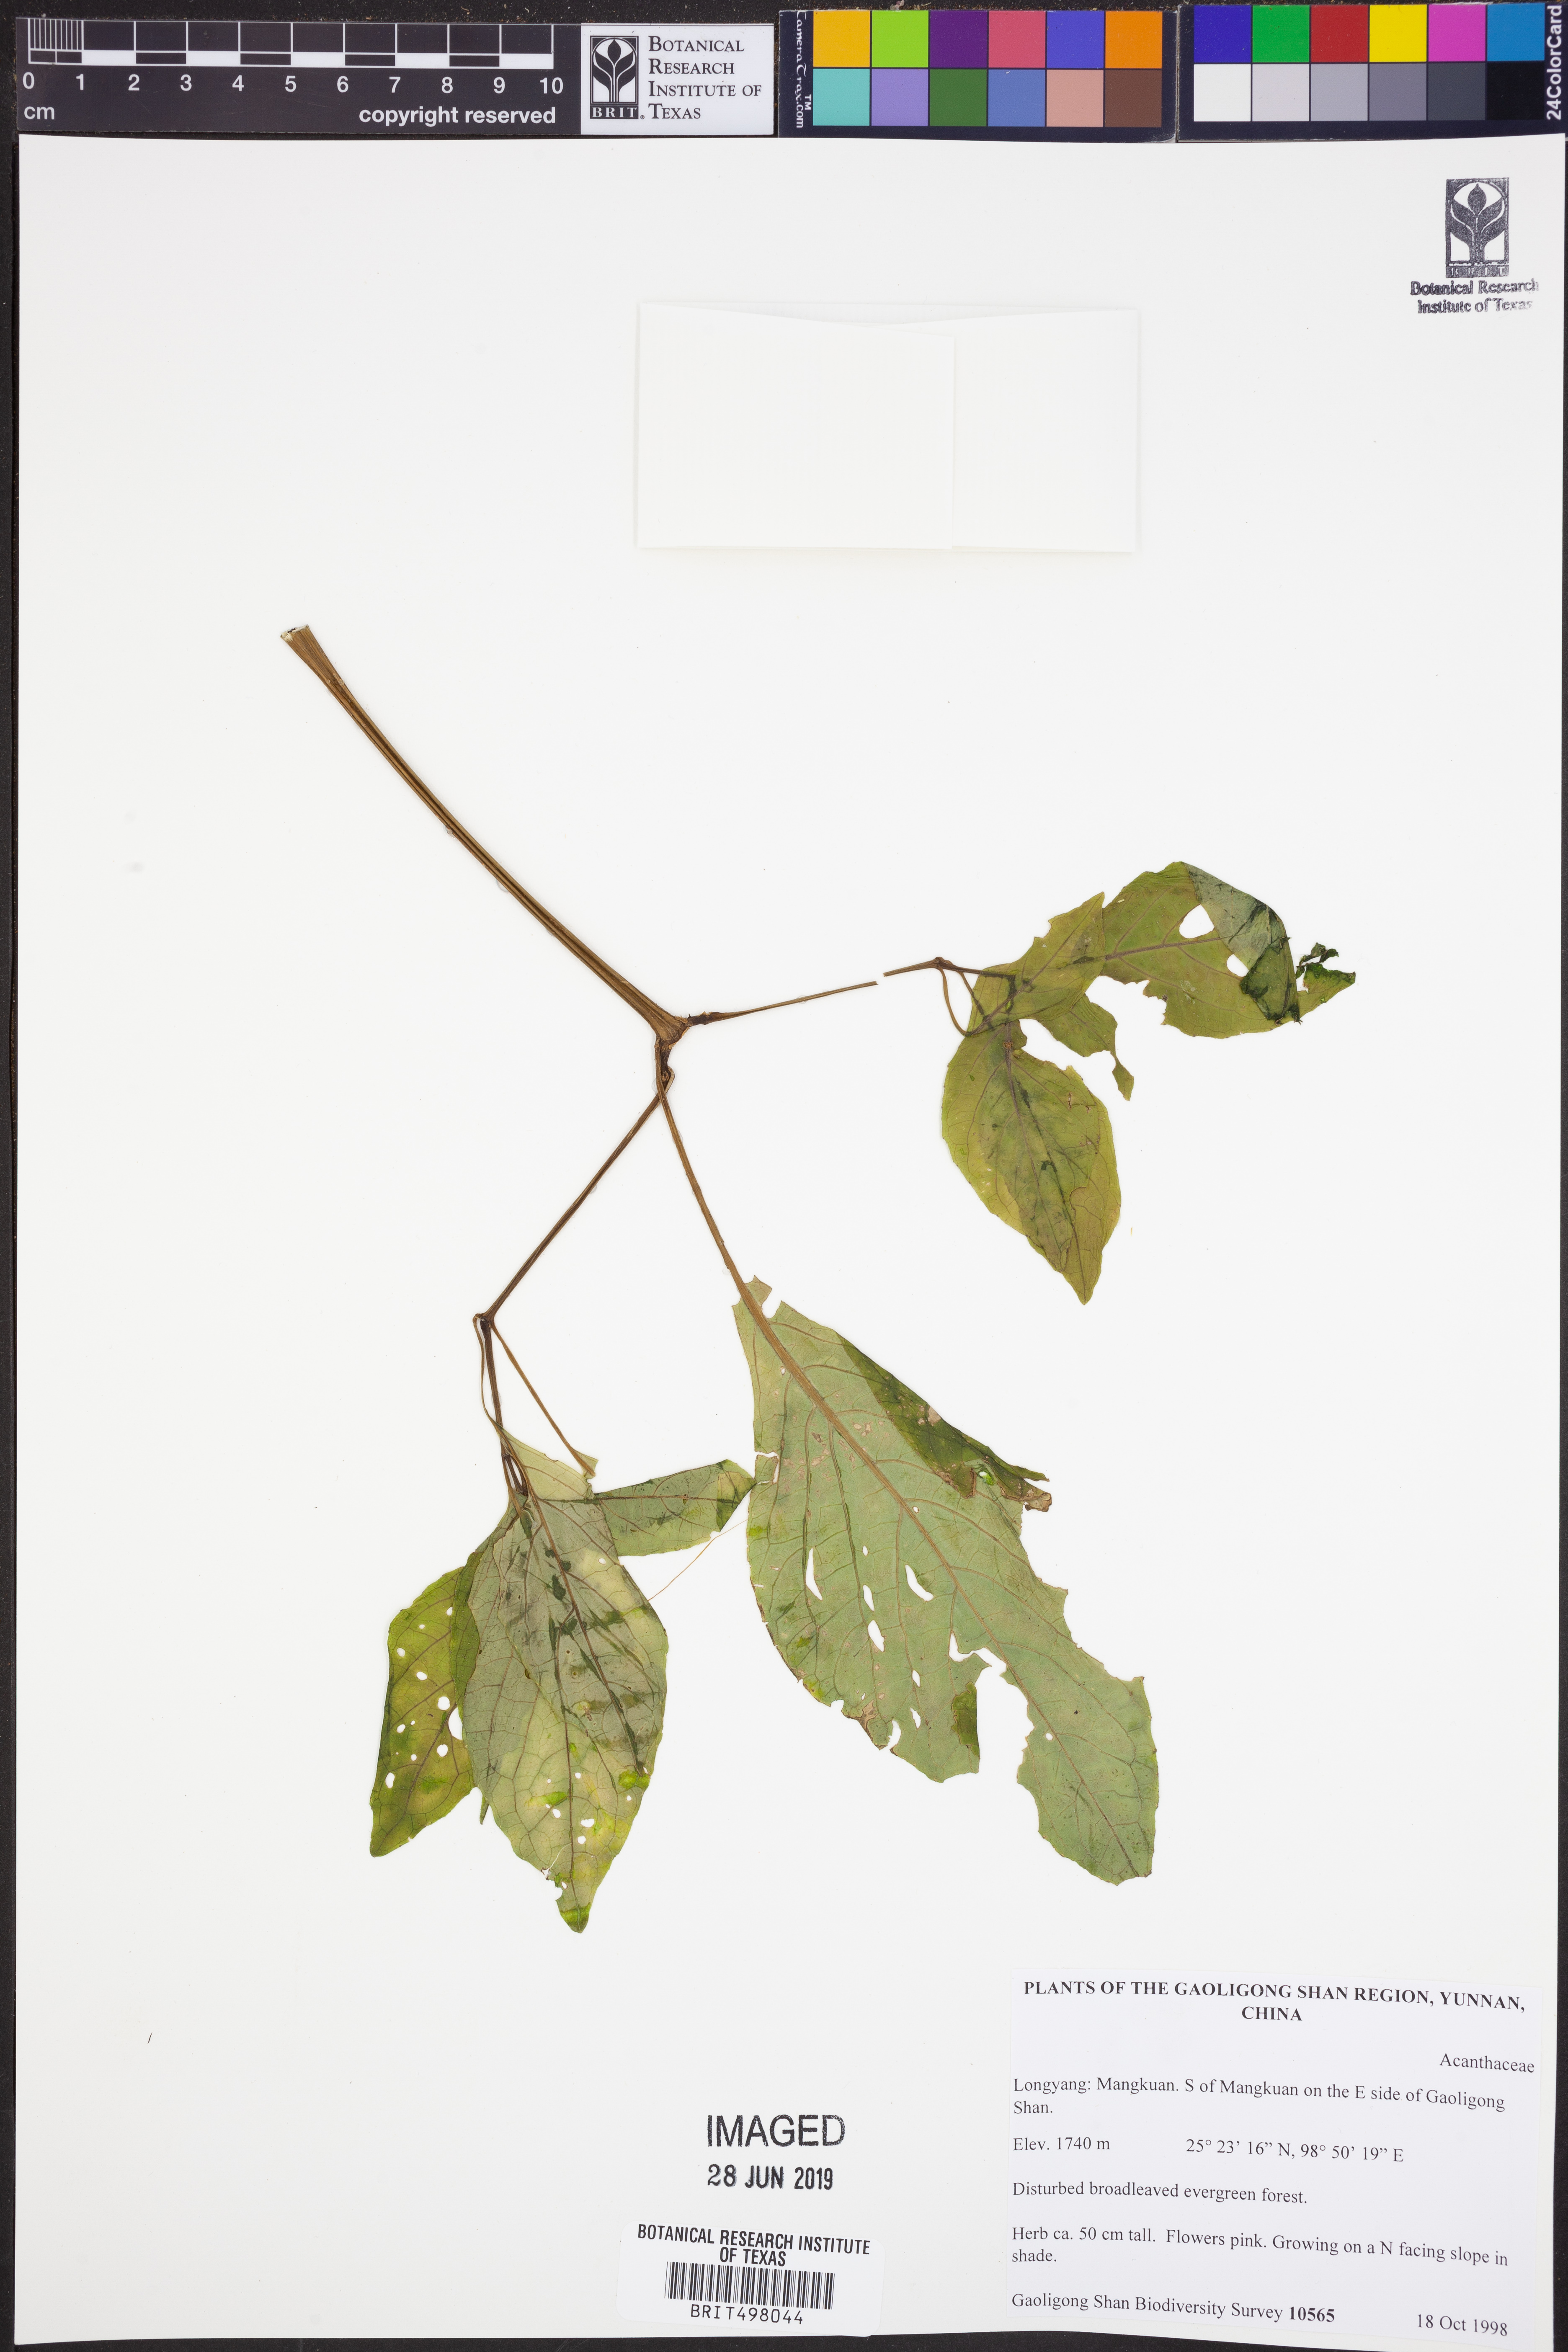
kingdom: Plantae
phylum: Tracheophyta
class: Magnoliopsida
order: Lamiales
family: Acanthaceae
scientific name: Acanthaceae
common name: Acanthaceae
